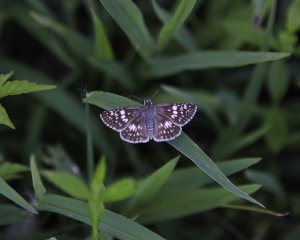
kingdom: Animalia
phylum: Arthropoda
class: Insecta
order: Lepidoptera
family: Hesperiidae
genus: Pyrgus
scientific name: Pyrgus
